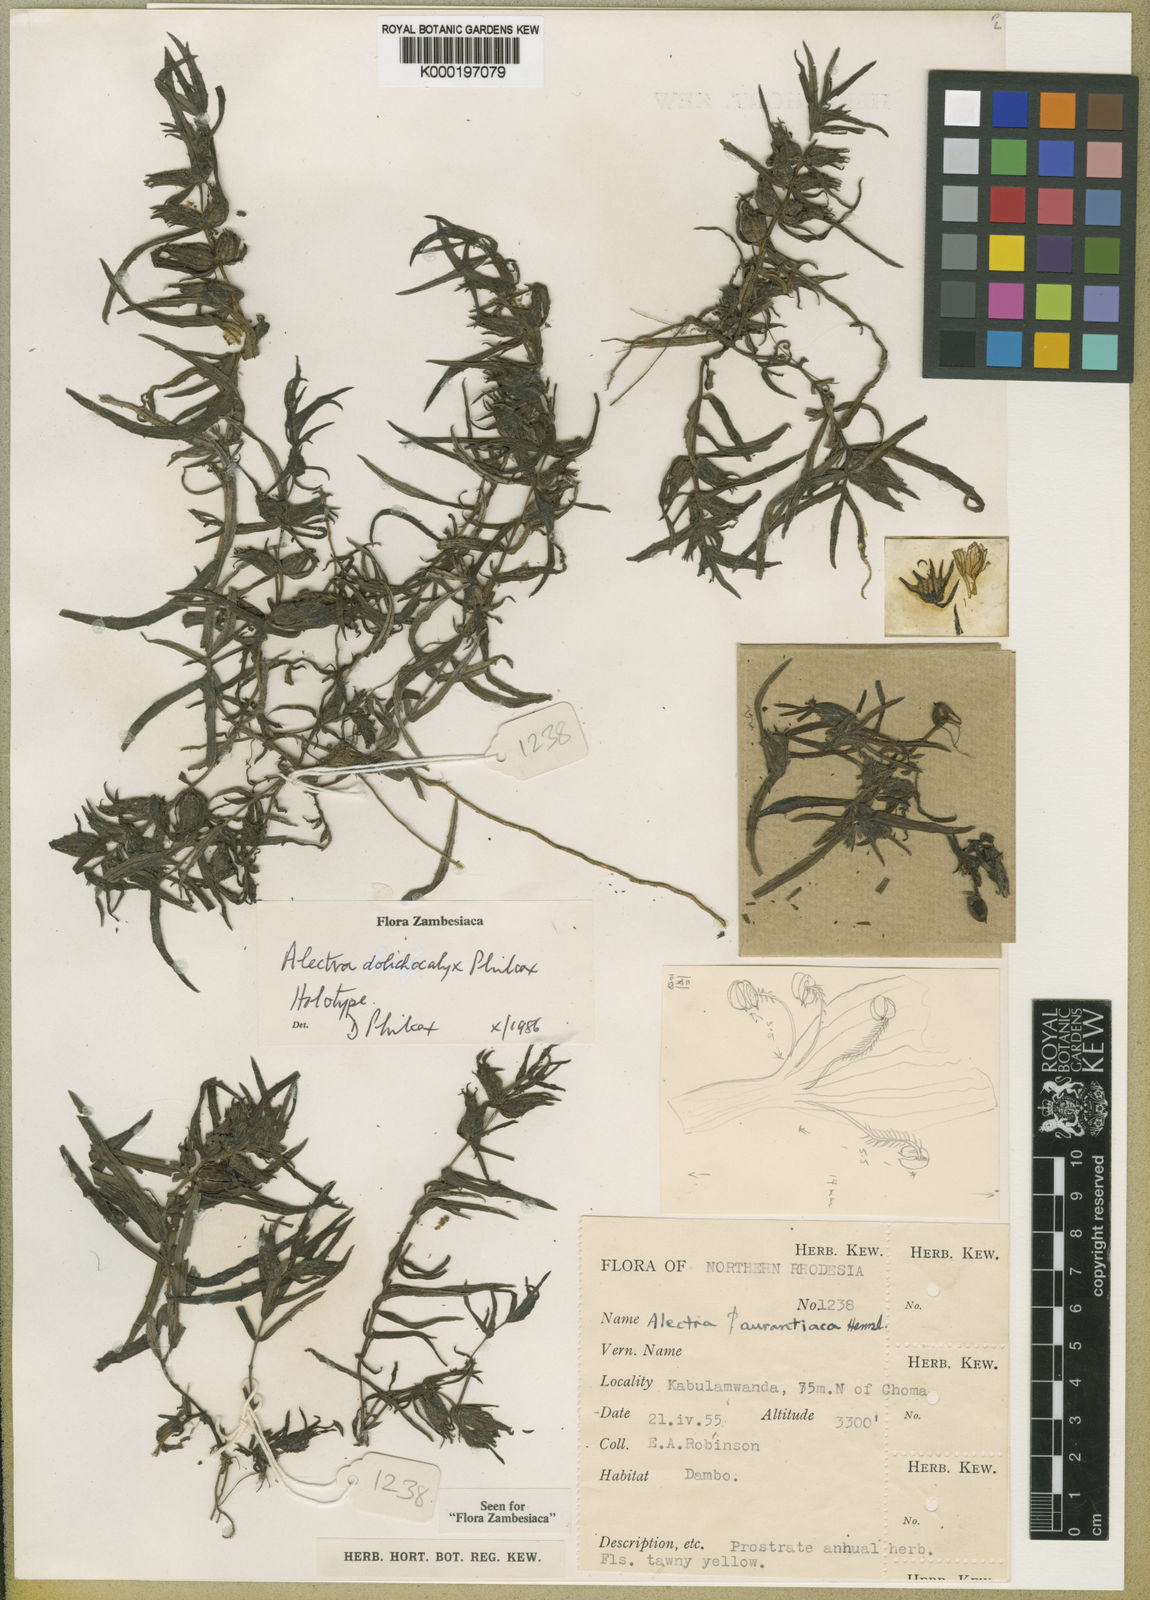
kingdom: Plantae
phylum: Tracheophyta
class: Magnoliopsida
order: Lamiales
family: Orobanchaceae
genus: Alectra
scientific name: Alectra dolichocalyx
